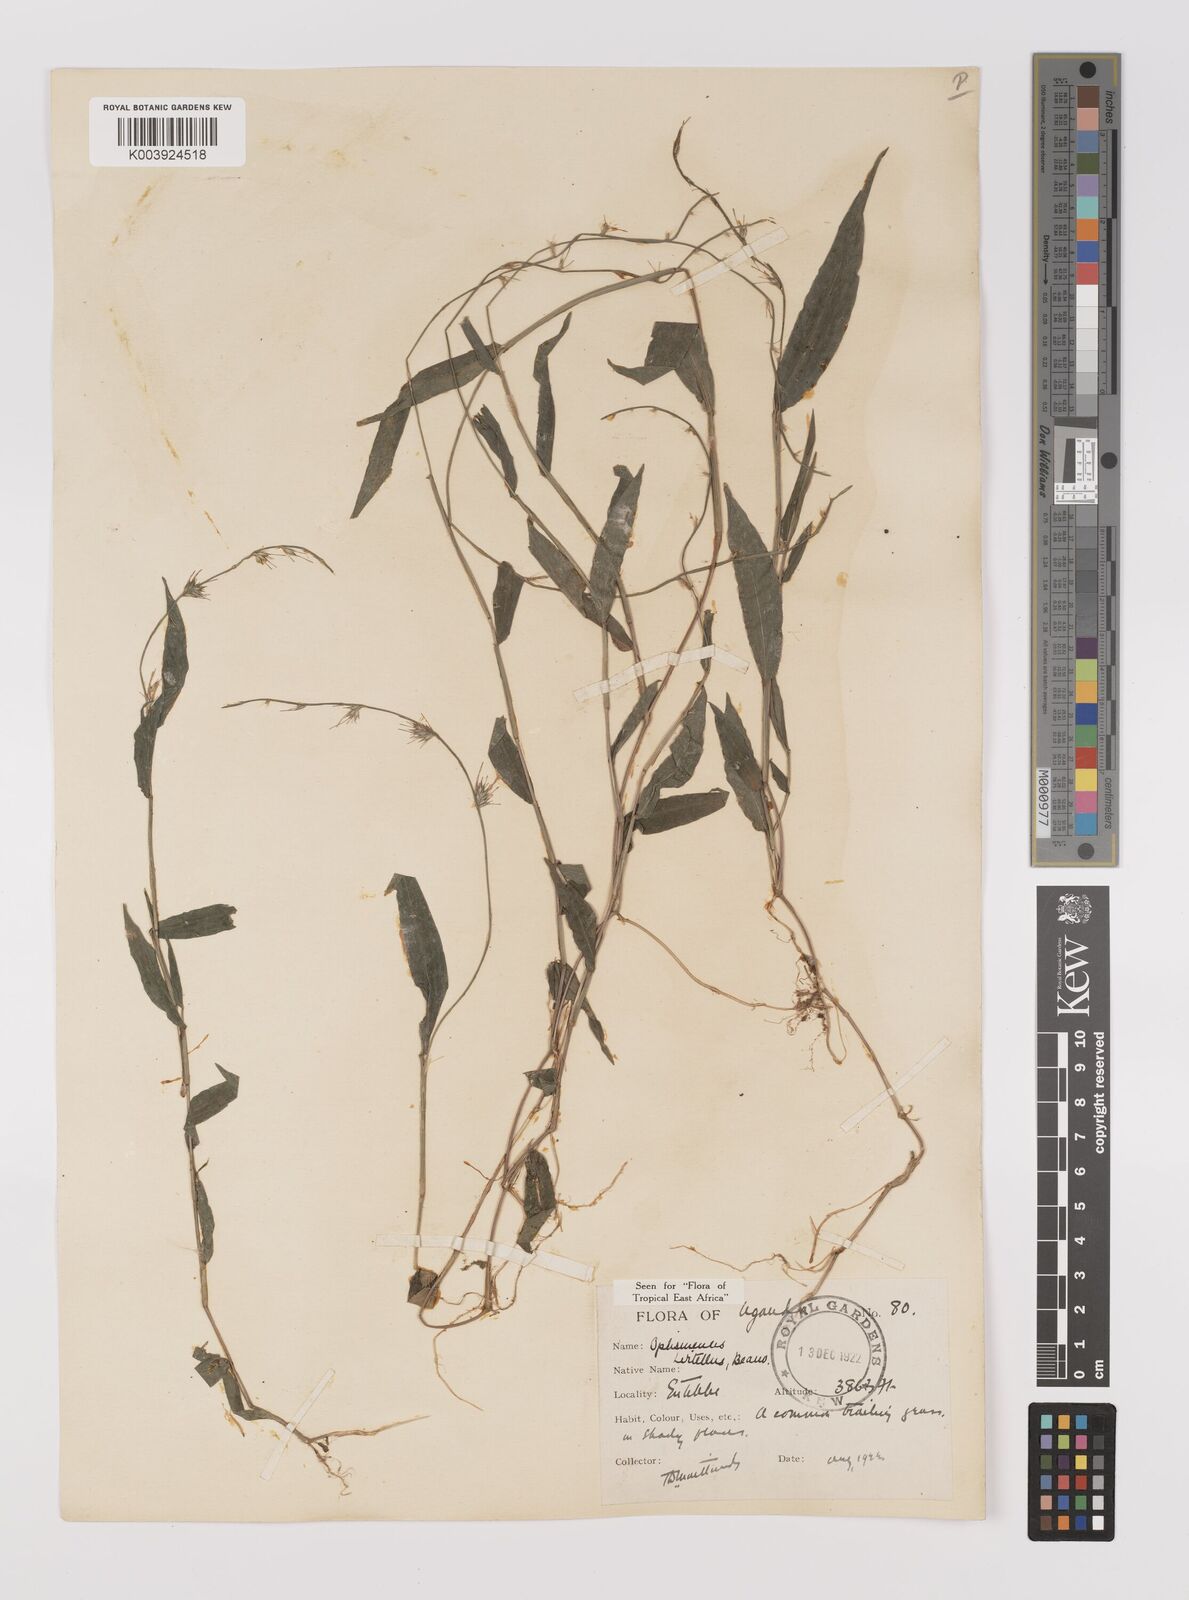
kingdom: Plantae
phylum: Tracheophyta
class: Liliopsida
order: Poales
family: Poaceae
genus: Oplismenus
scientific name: Oplismenus hirtellus
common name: Basketgrass
